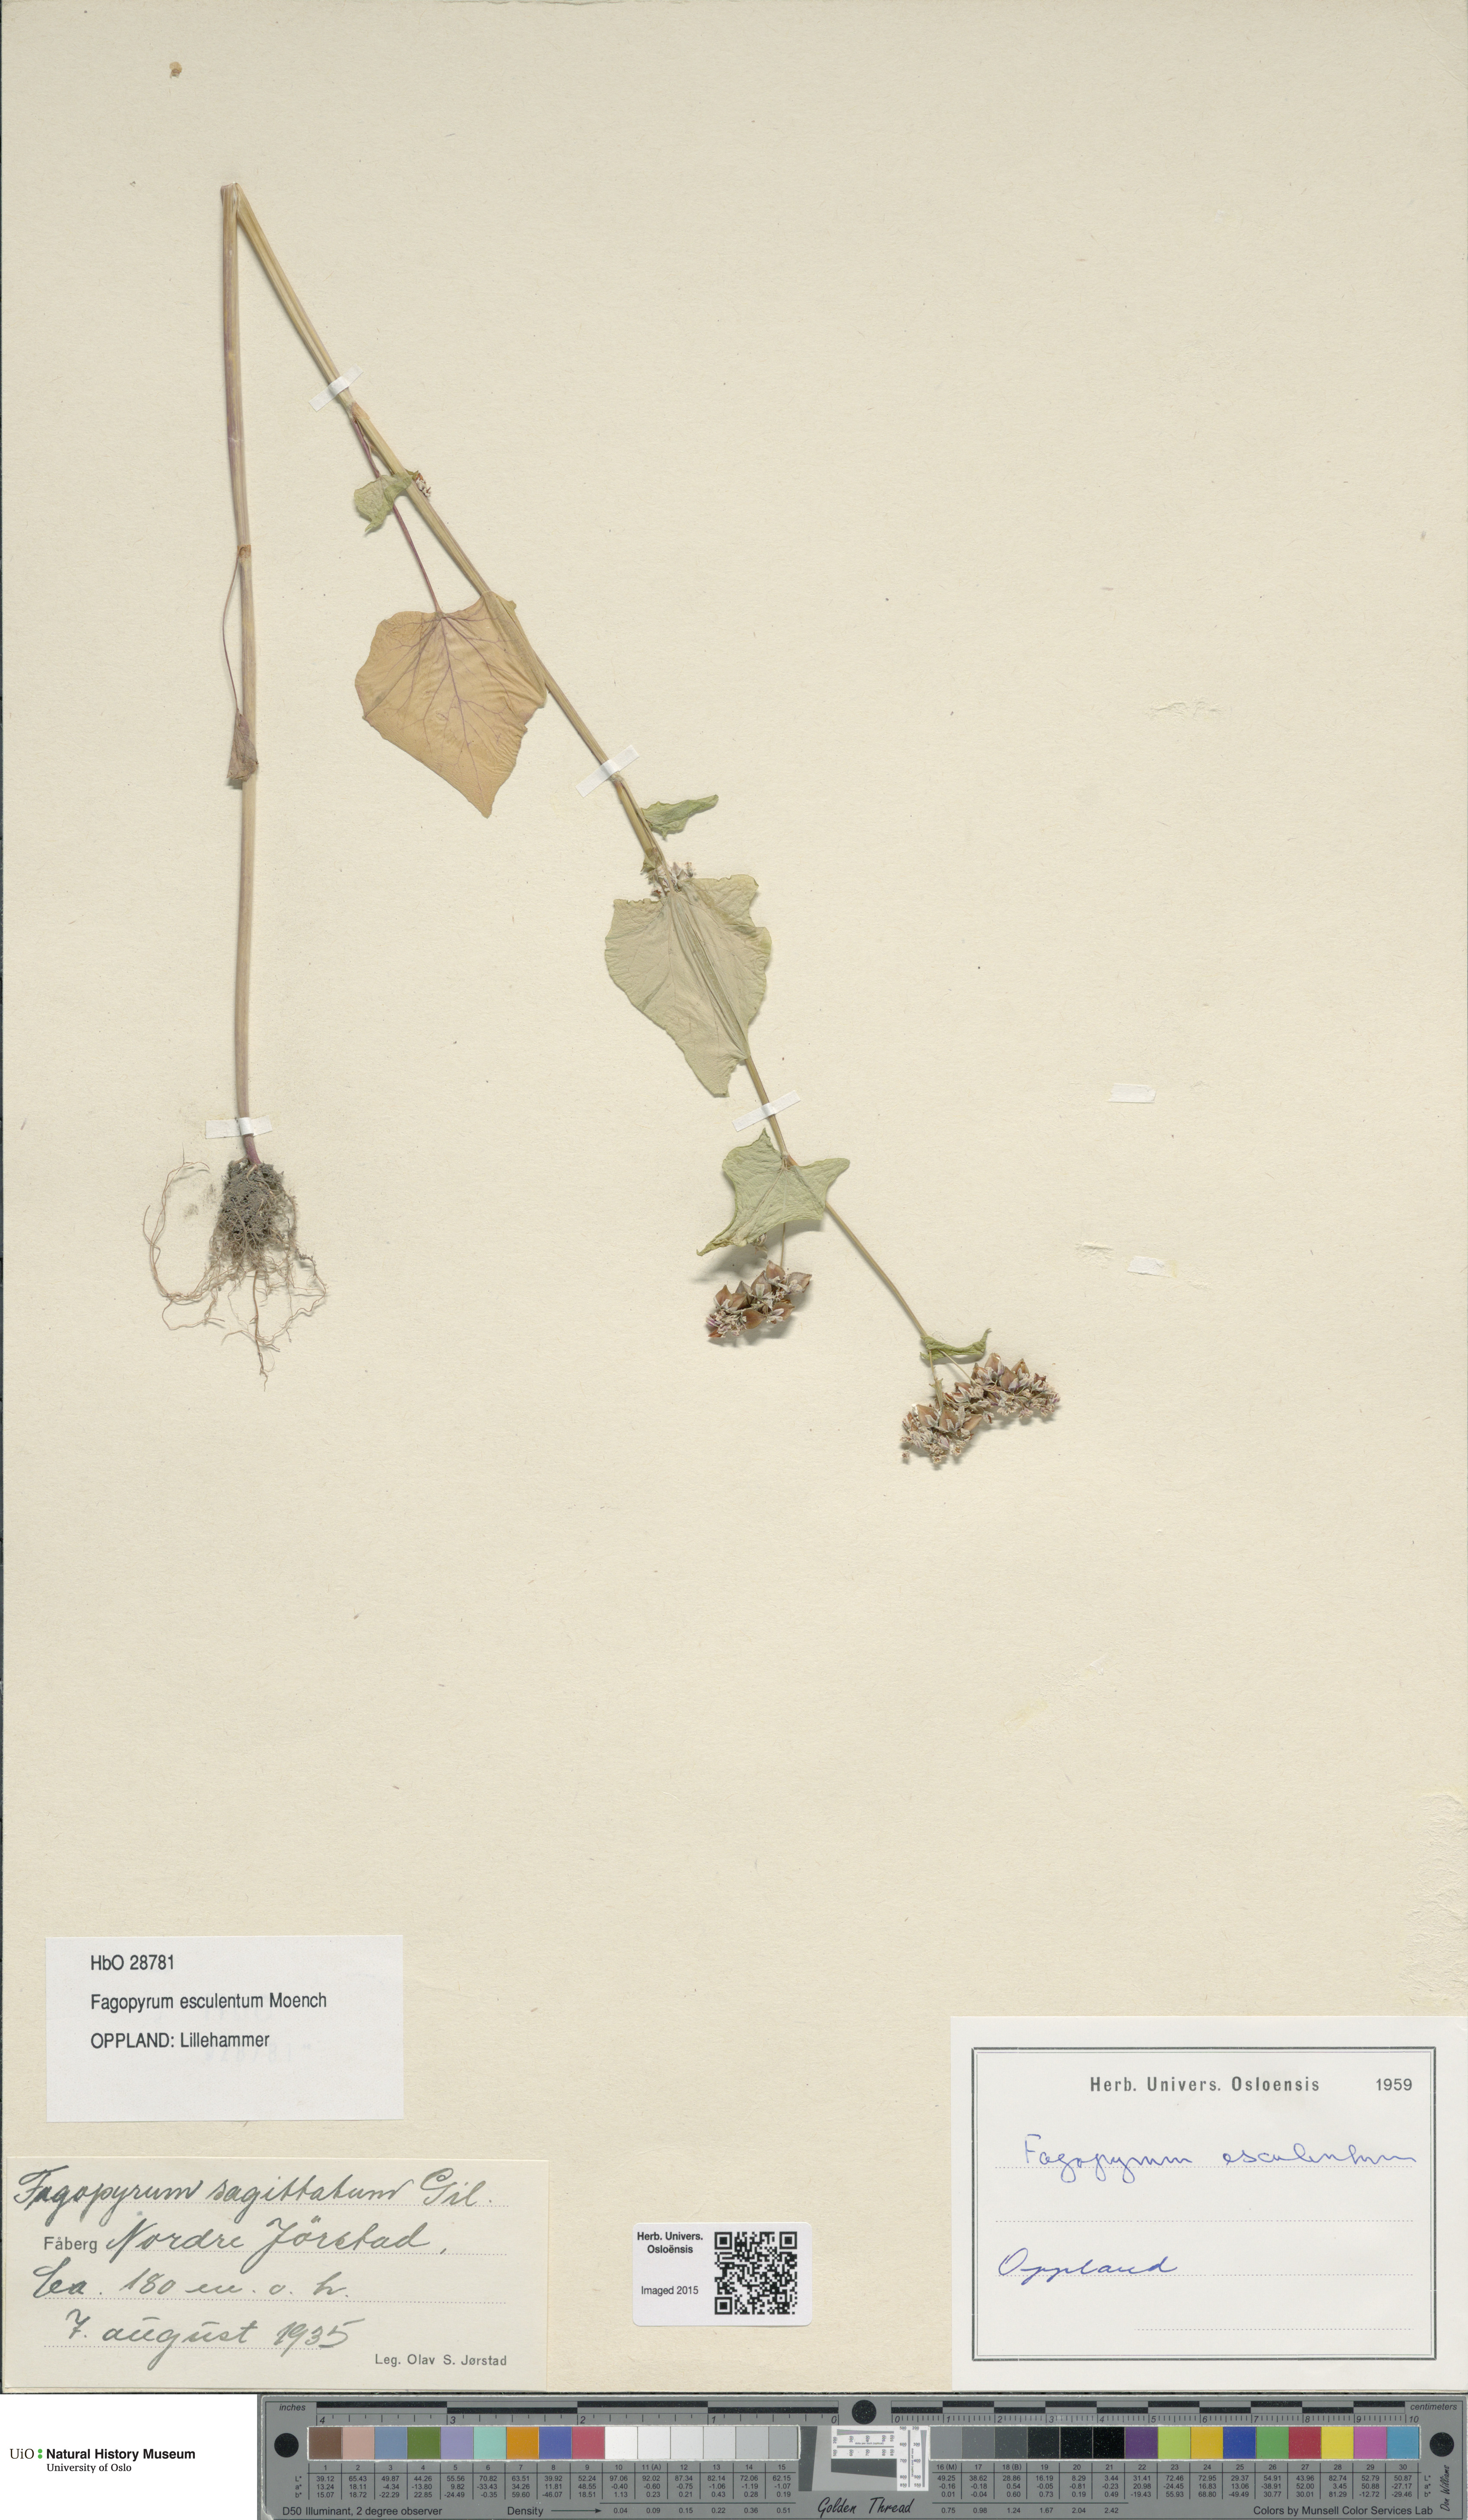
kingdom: Plantae
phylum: Tracheophyta
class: Magnoliopsida
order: Caryophyllales
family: Polygonaceae
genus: Fagopyrum
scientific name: Fagopyrum esculentum
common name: Buckwheat
